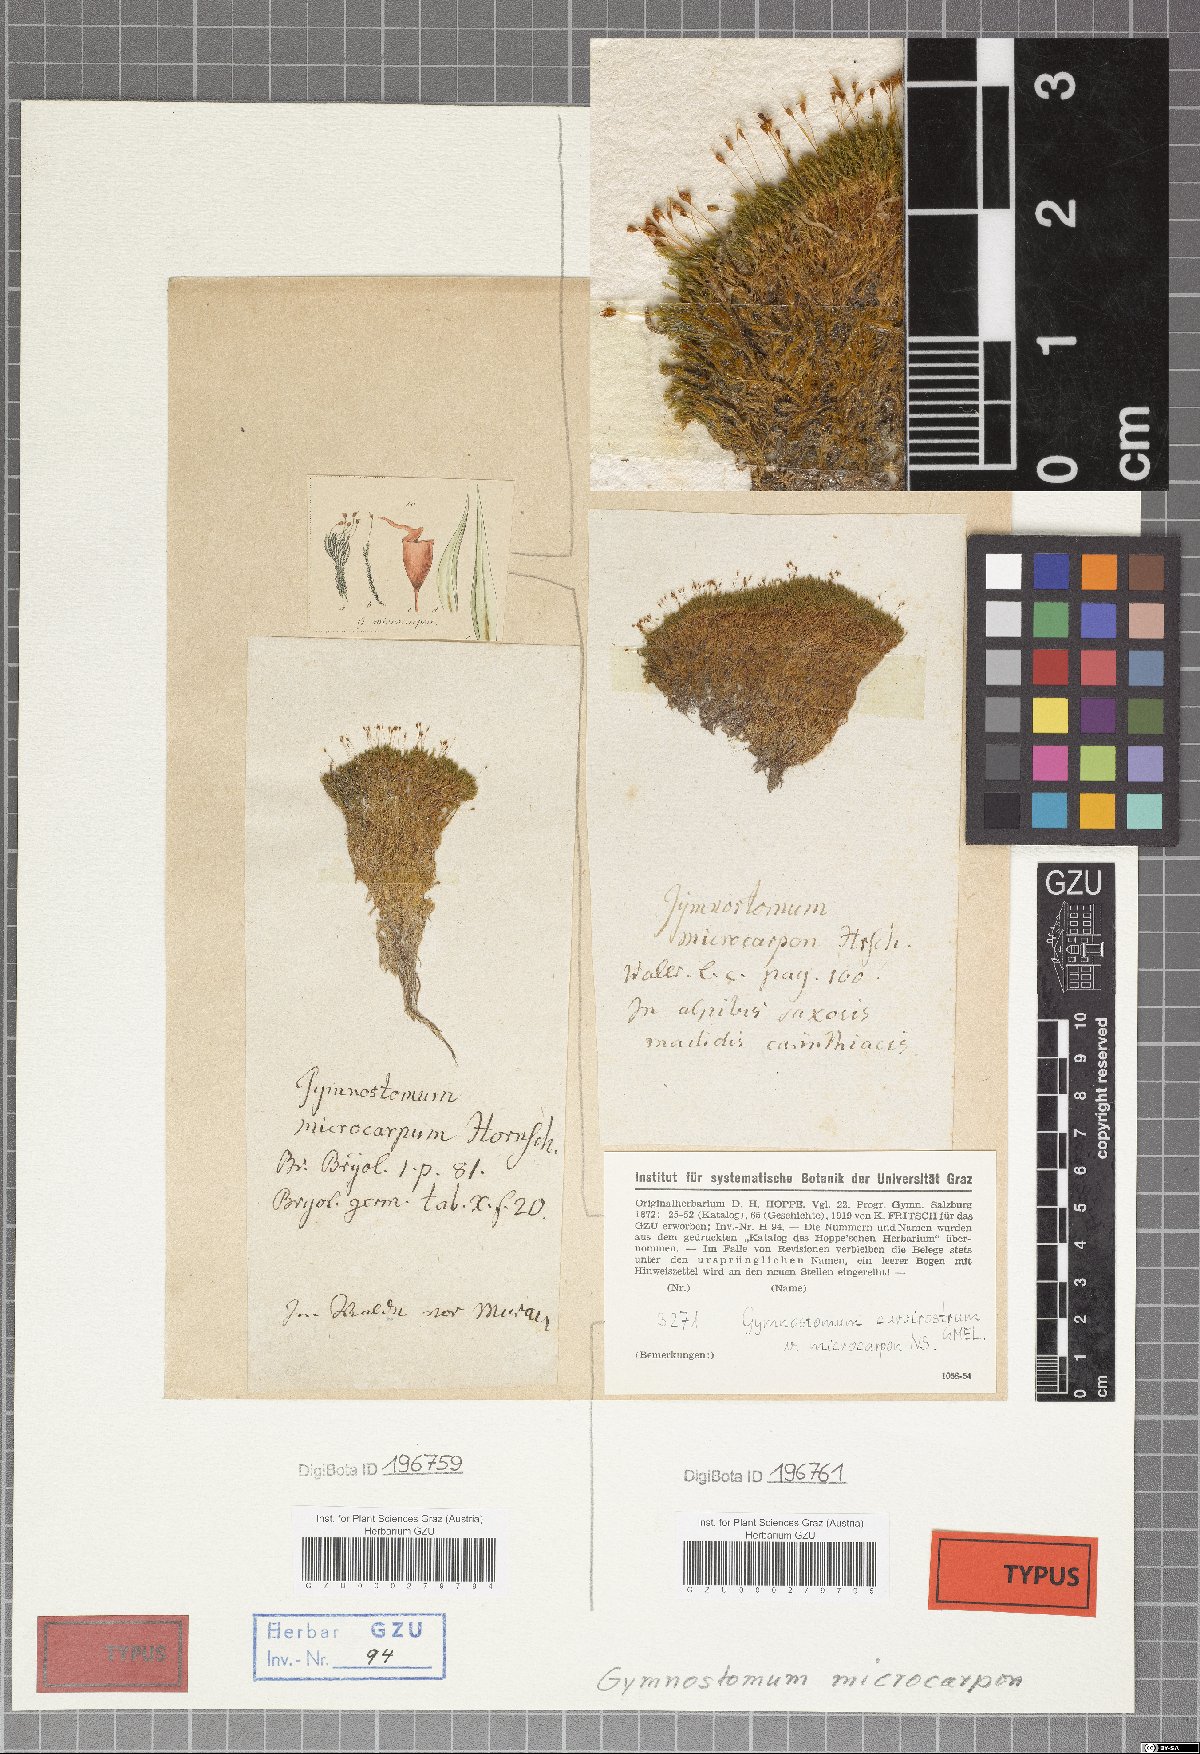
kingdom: Plantae
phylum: Bryophyta
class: Bryopsida
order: Pottiales
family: Pottiaceae
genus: Hymenostylium
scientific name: Hymenostylium recurvirostrum
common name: Hook-beak tufa-moss
